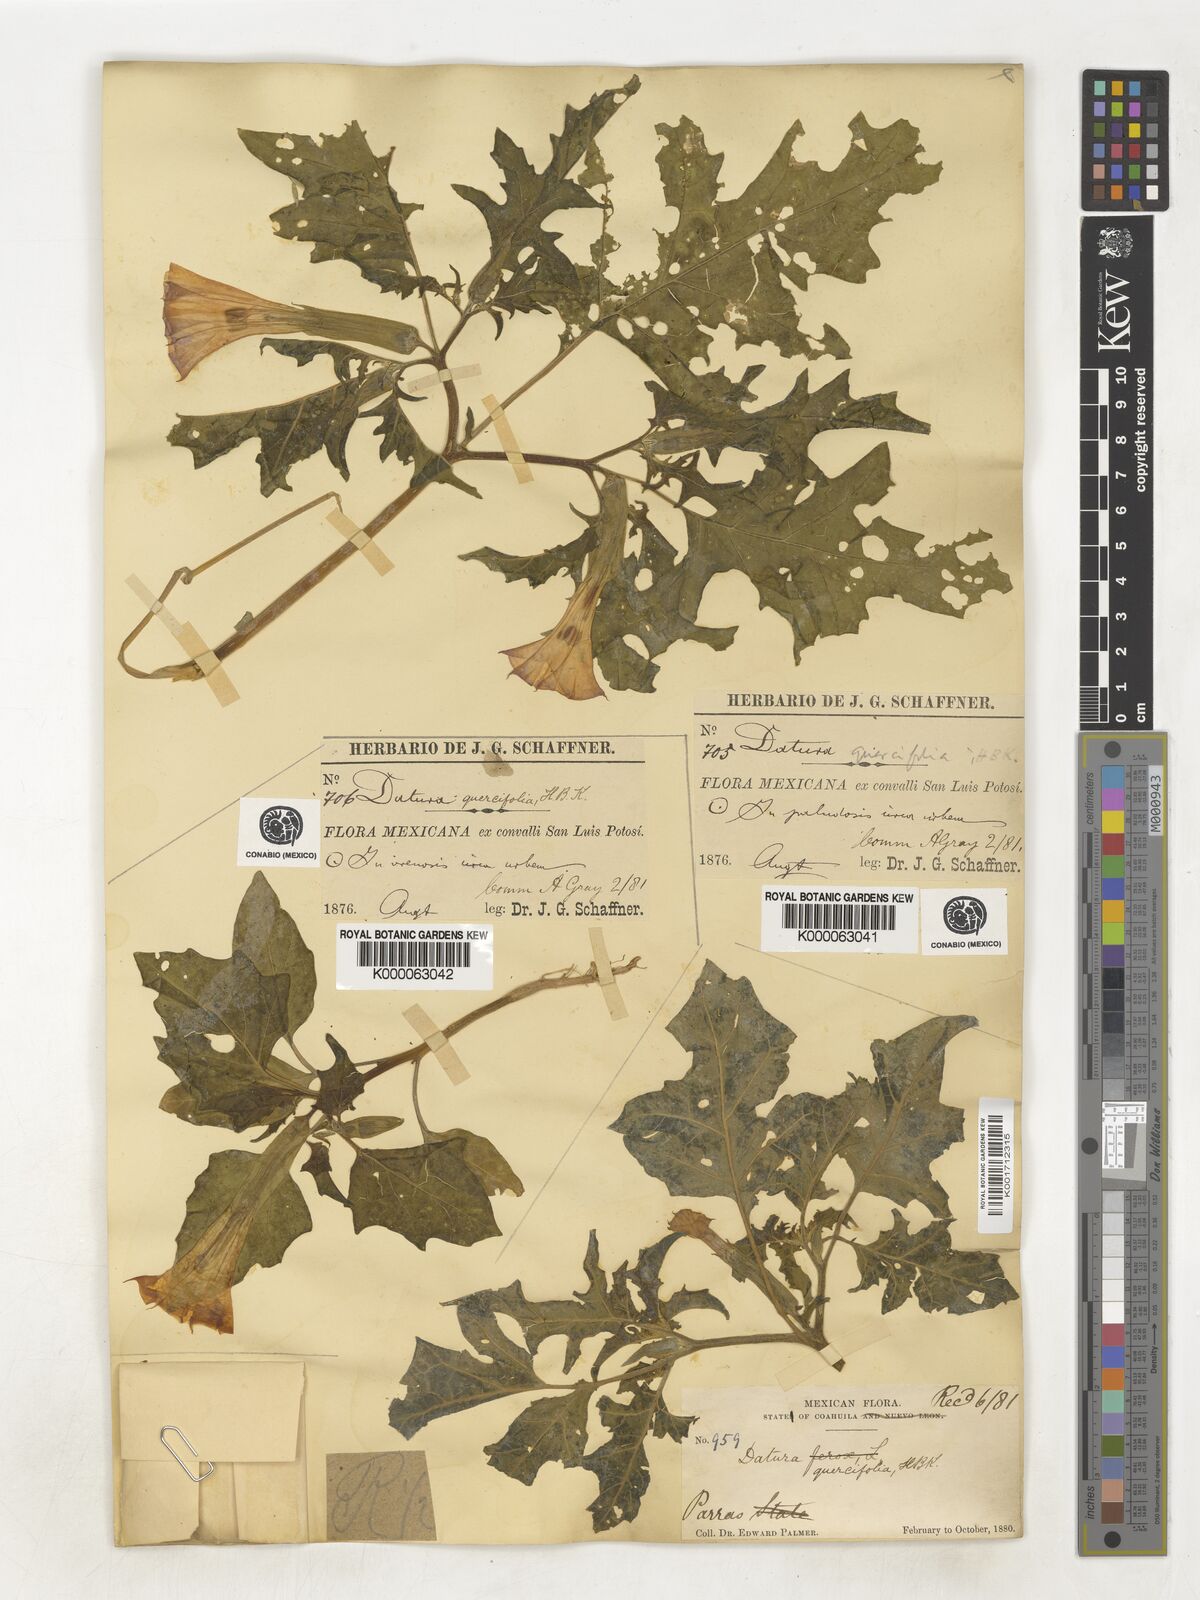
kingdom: Plantae
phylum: Tracheophyta
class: Magnoliopsida
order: Solanales
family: Solanaceae
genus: Datura
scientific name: Datura quercifolia
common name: Oak-leaf datura
